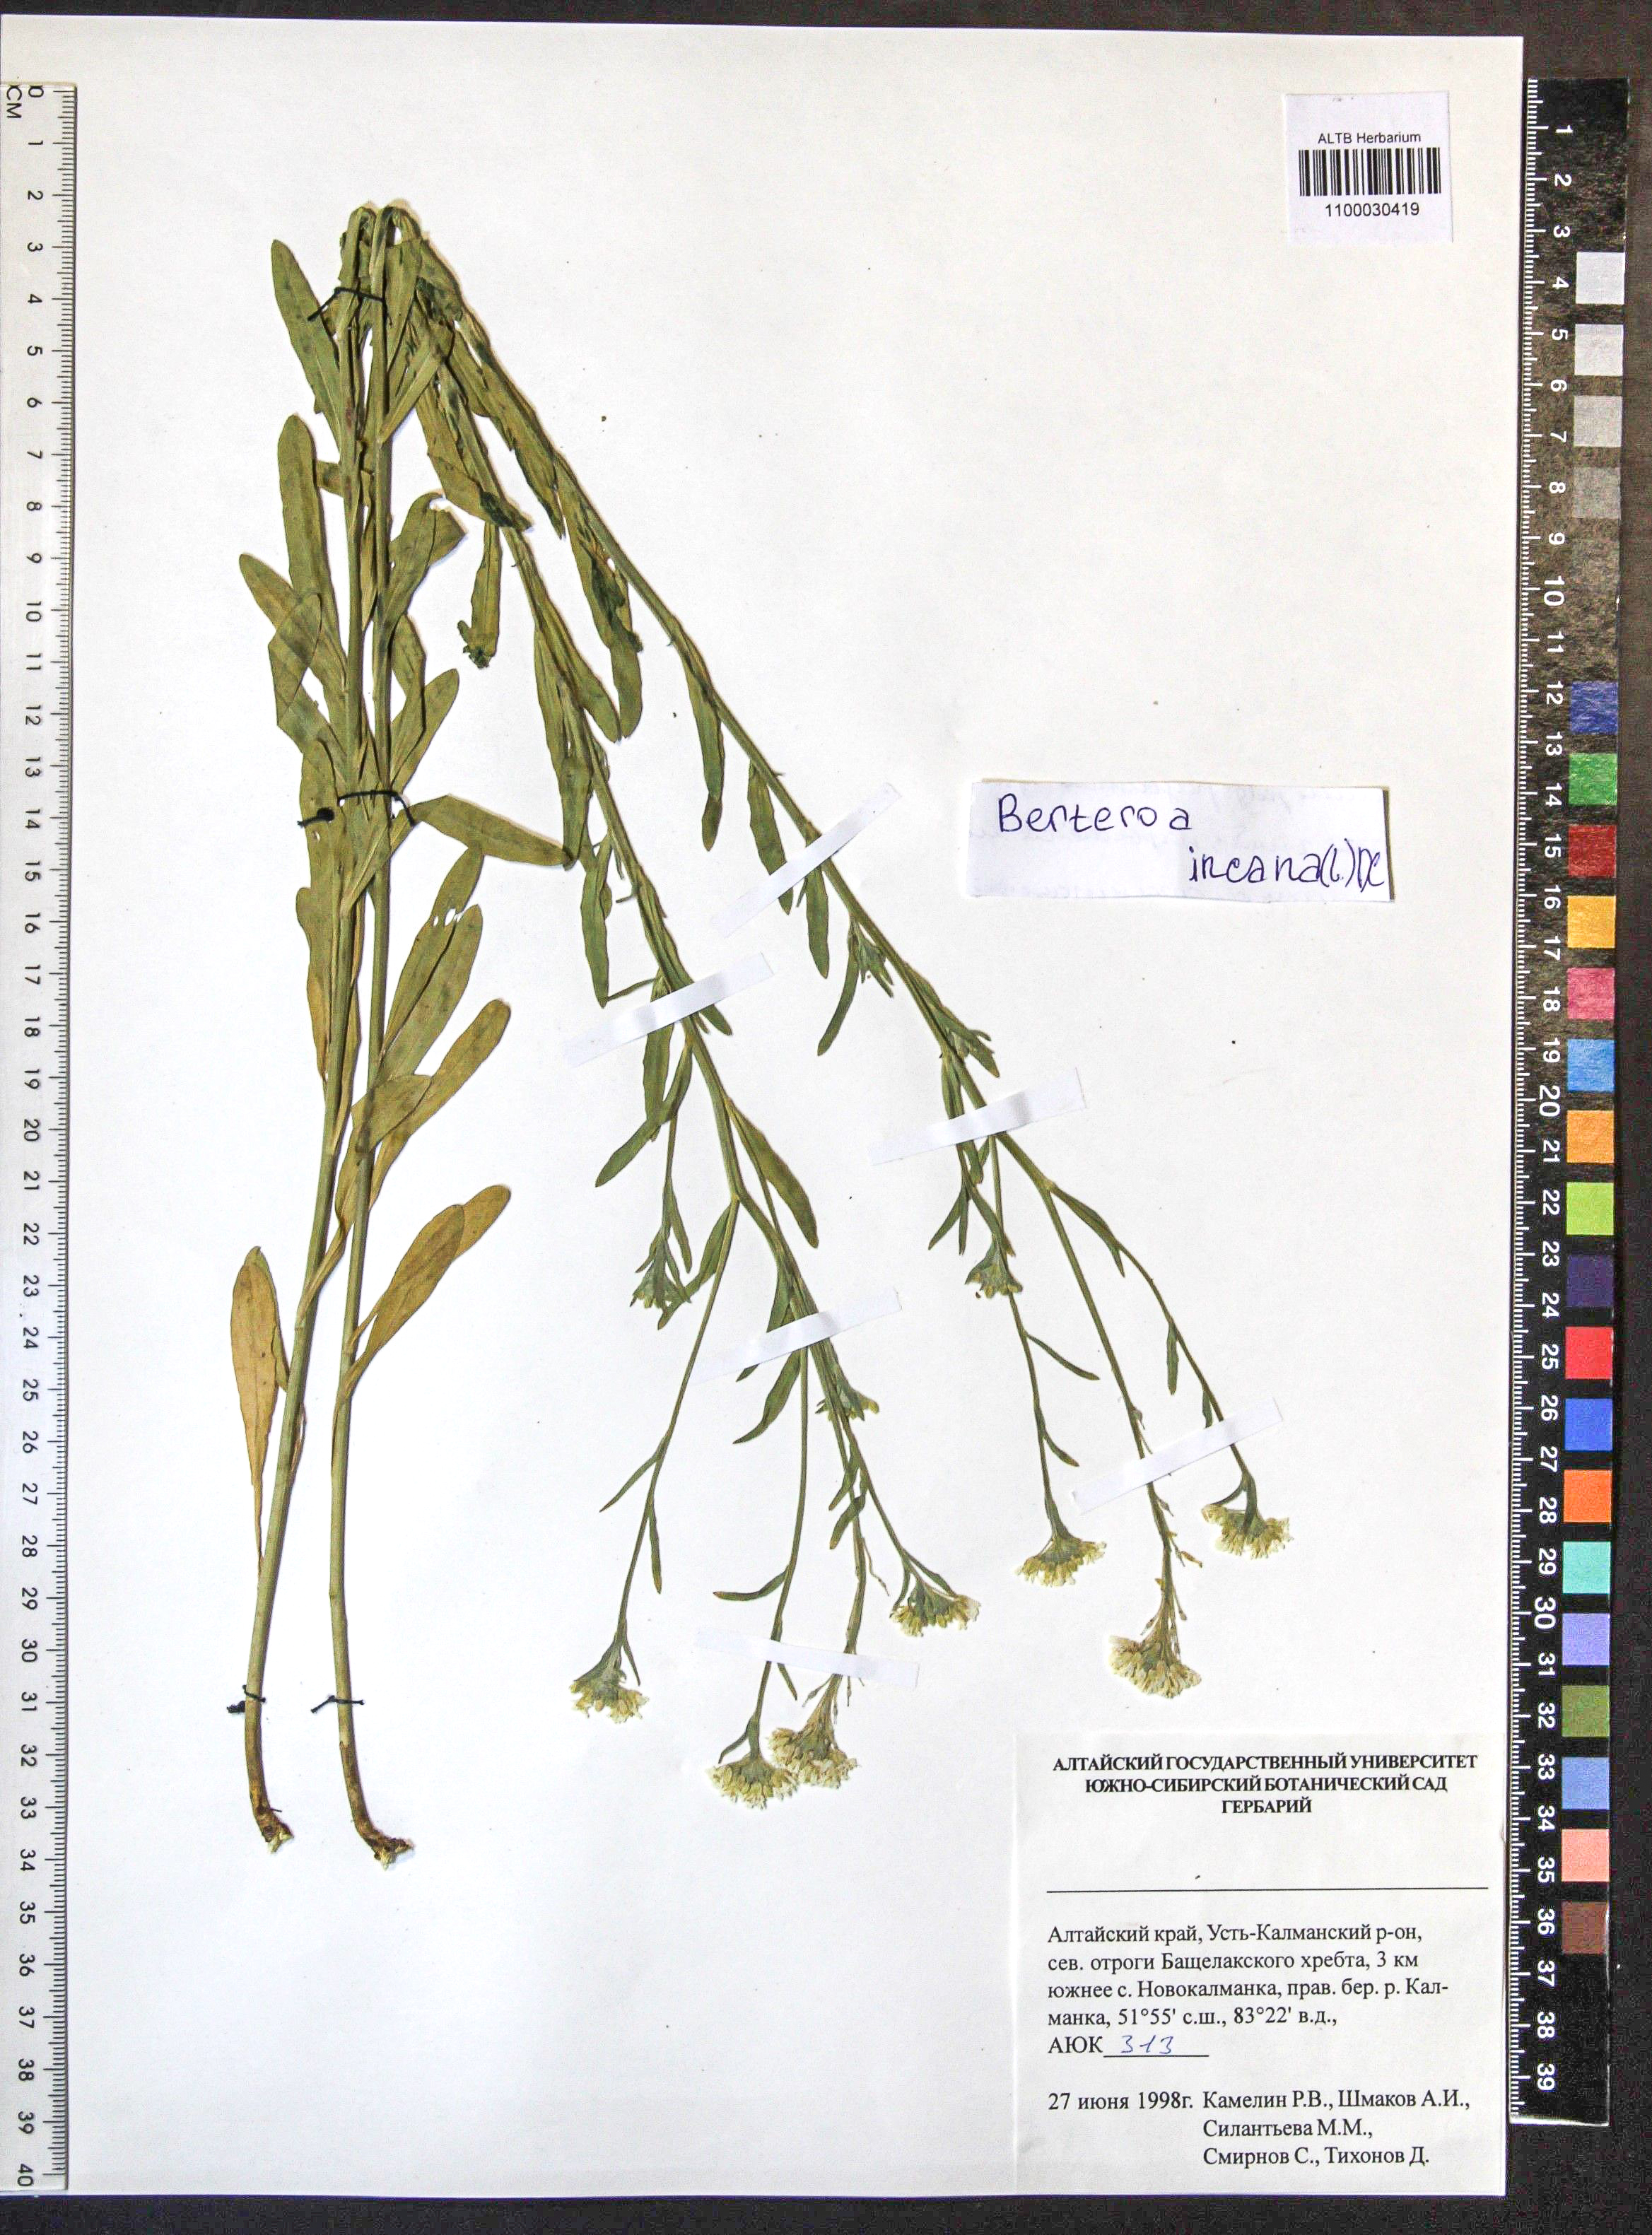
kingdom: Plantae
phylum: Tracheophyta
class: Magnoliopsida
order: Brassicales
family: Brassicaceae
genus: Berteroa
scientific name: Berteroa incana
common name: Hoary alison
